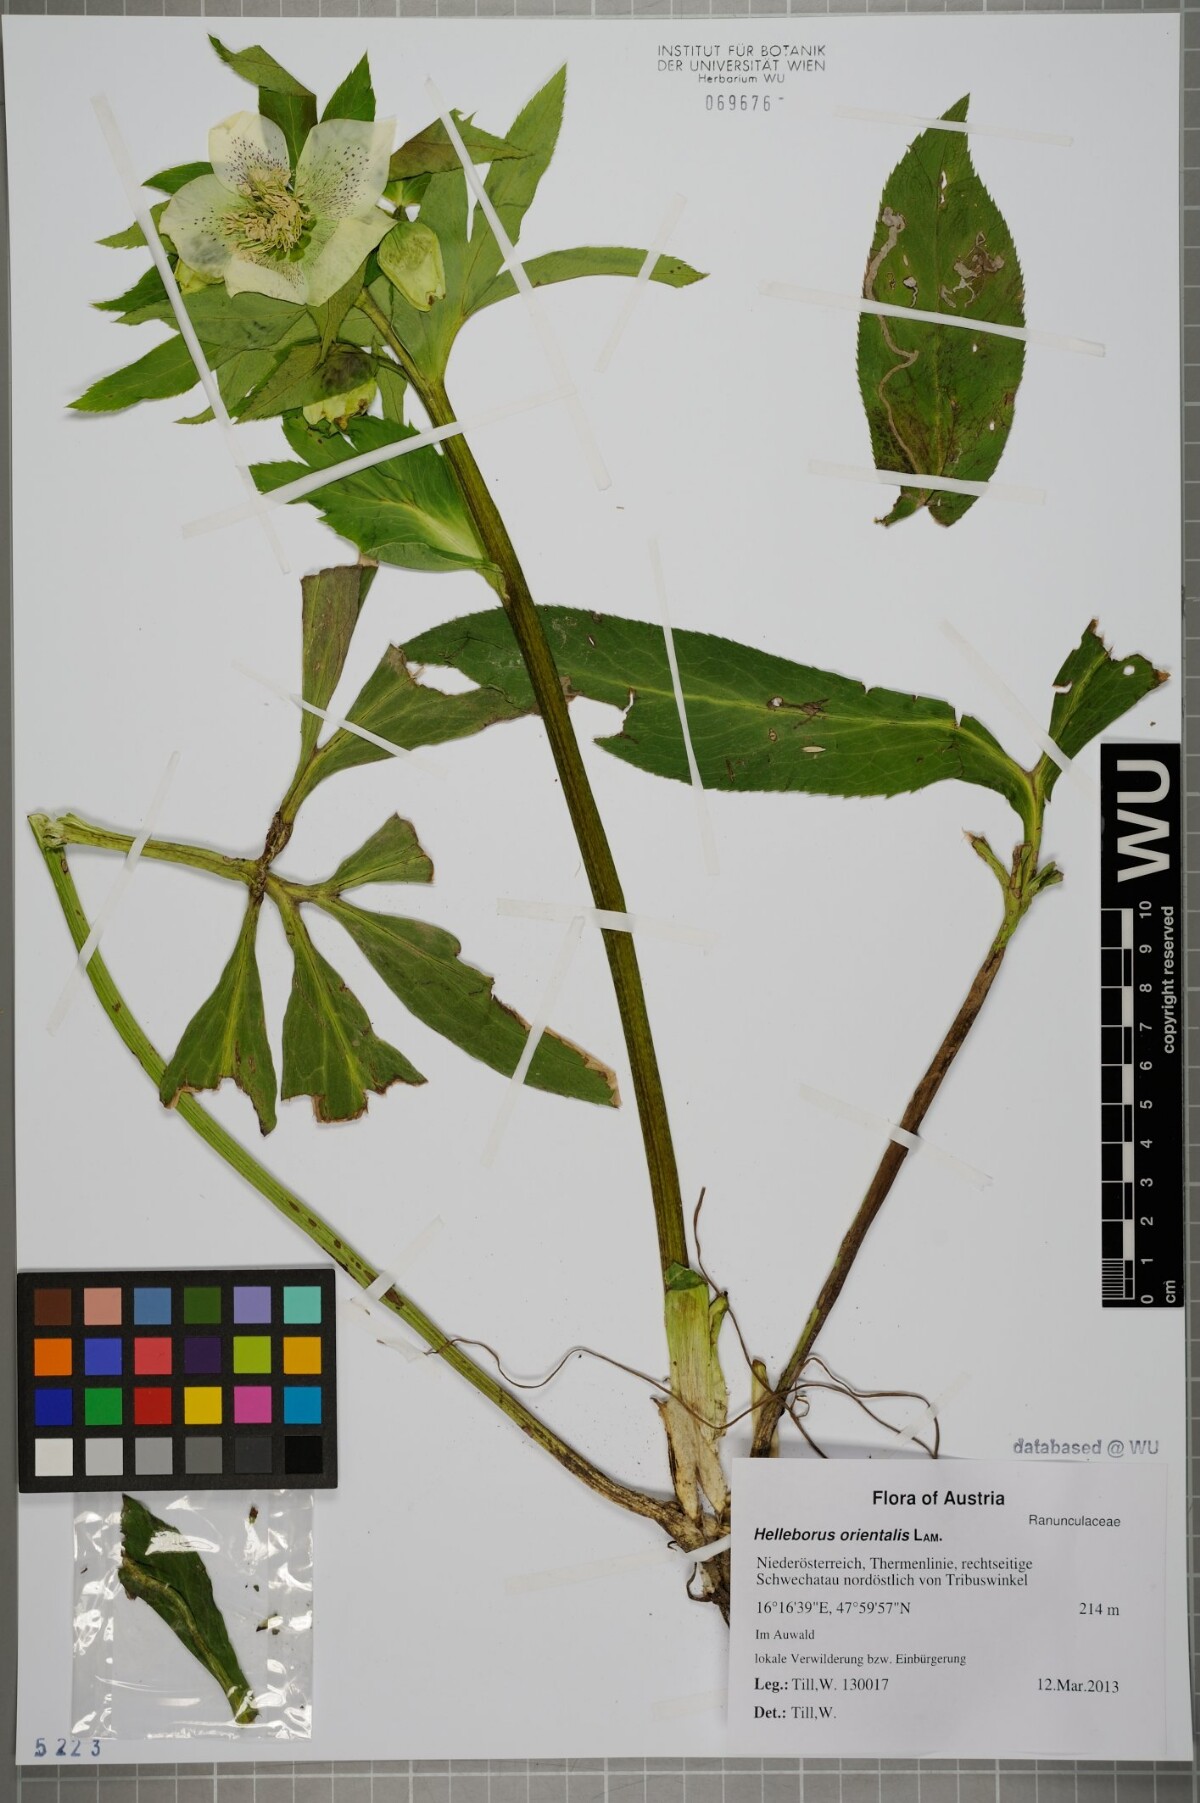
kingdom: Plantae
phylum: Tracheophyta
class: Magnoliopsida
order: Ranunculales
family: Ranunculaceae
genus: Helleborus
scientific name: Helleborus orientalis
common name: Lenten-rose
